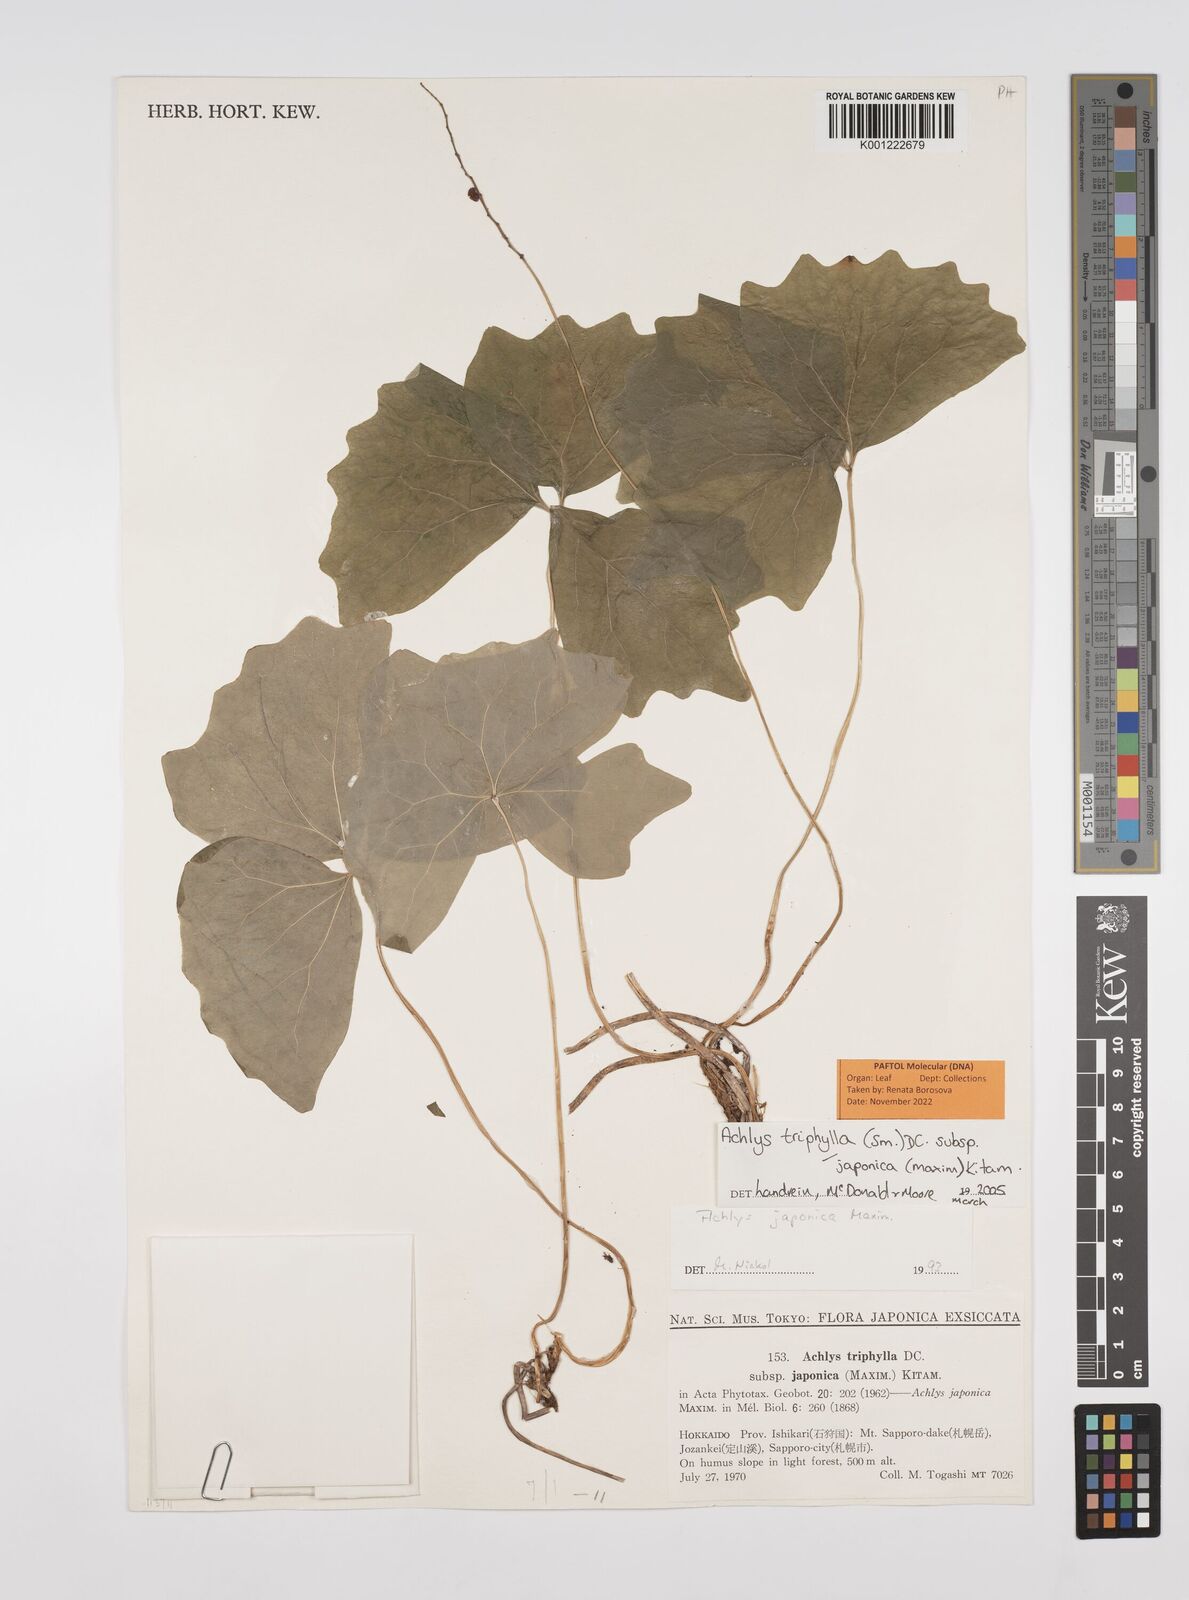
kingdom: Plantae
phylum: Tracheophyta
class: Magnoliopsida
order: Ranunculales
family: Berberidaceae
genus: Achlys
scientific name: Achlys triphylla
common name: Vanilla-leaf
